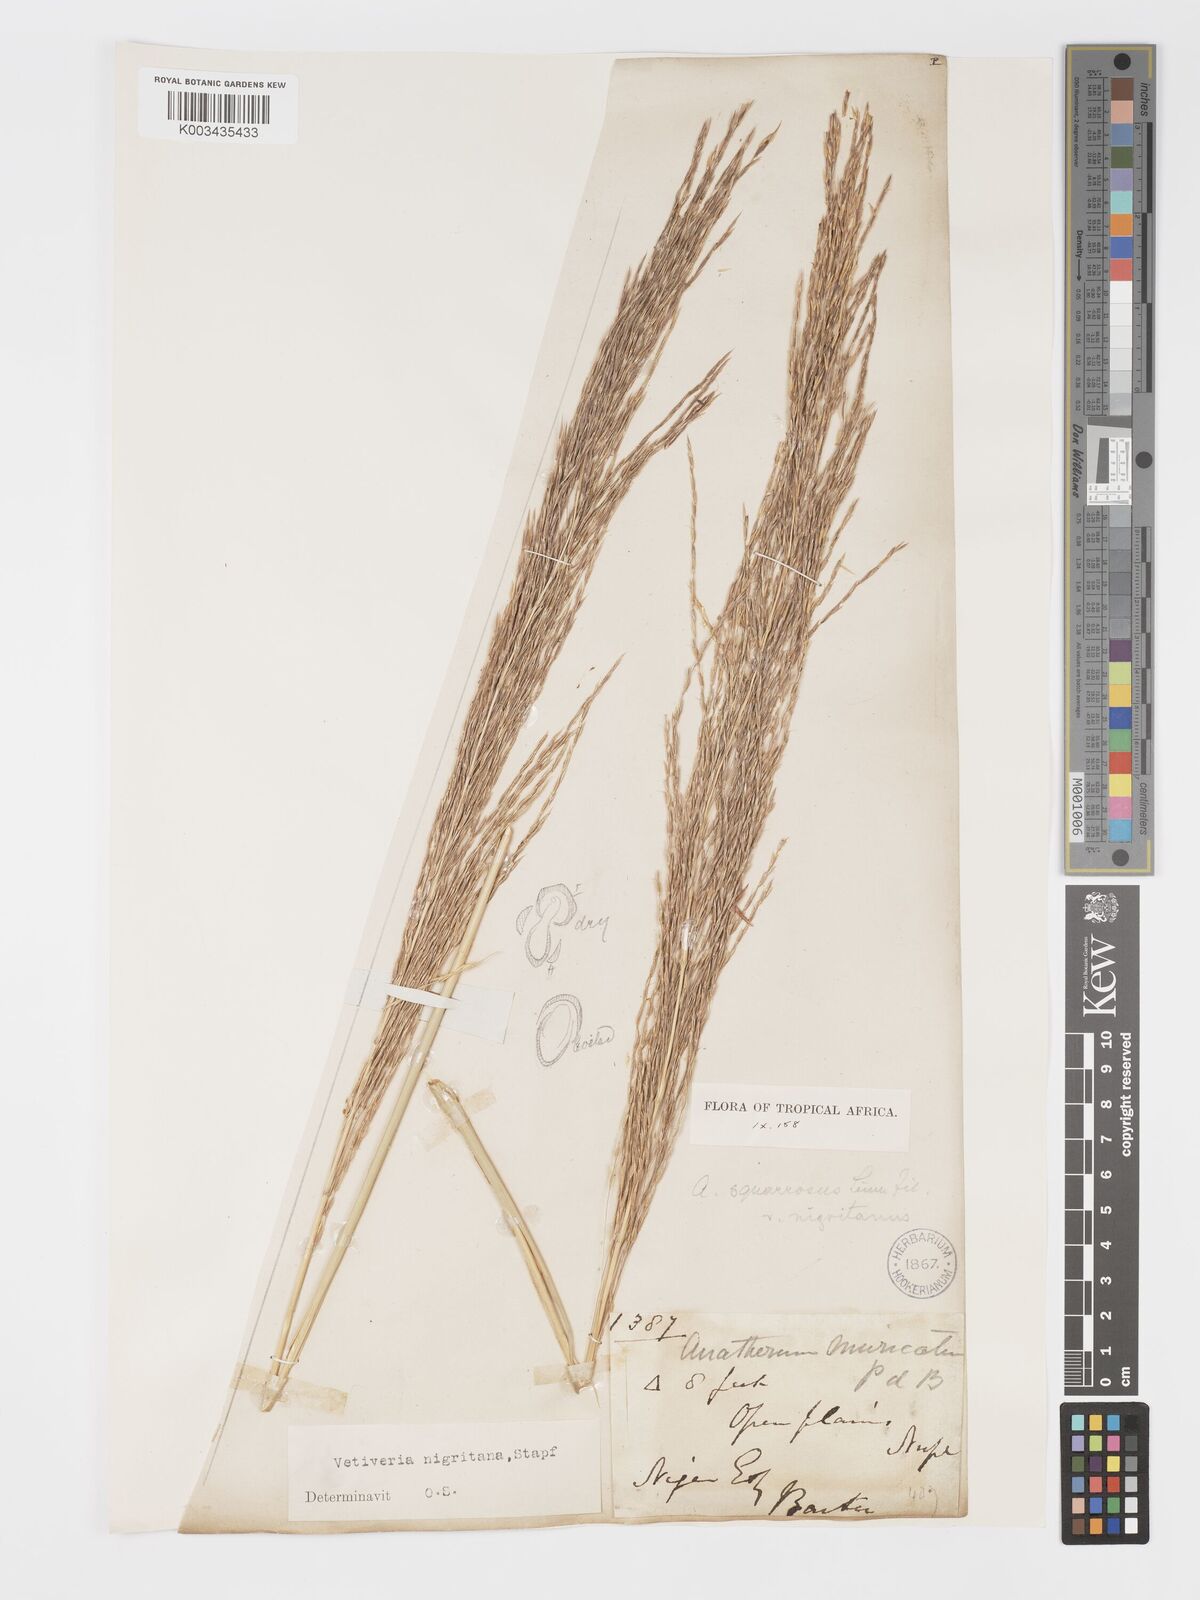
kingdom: Plantae
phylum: Tracheophyta
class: Liliopsida
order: Poales
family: Poaceae
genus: Chrysopogon
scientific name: Chrysopogon nigritanus
